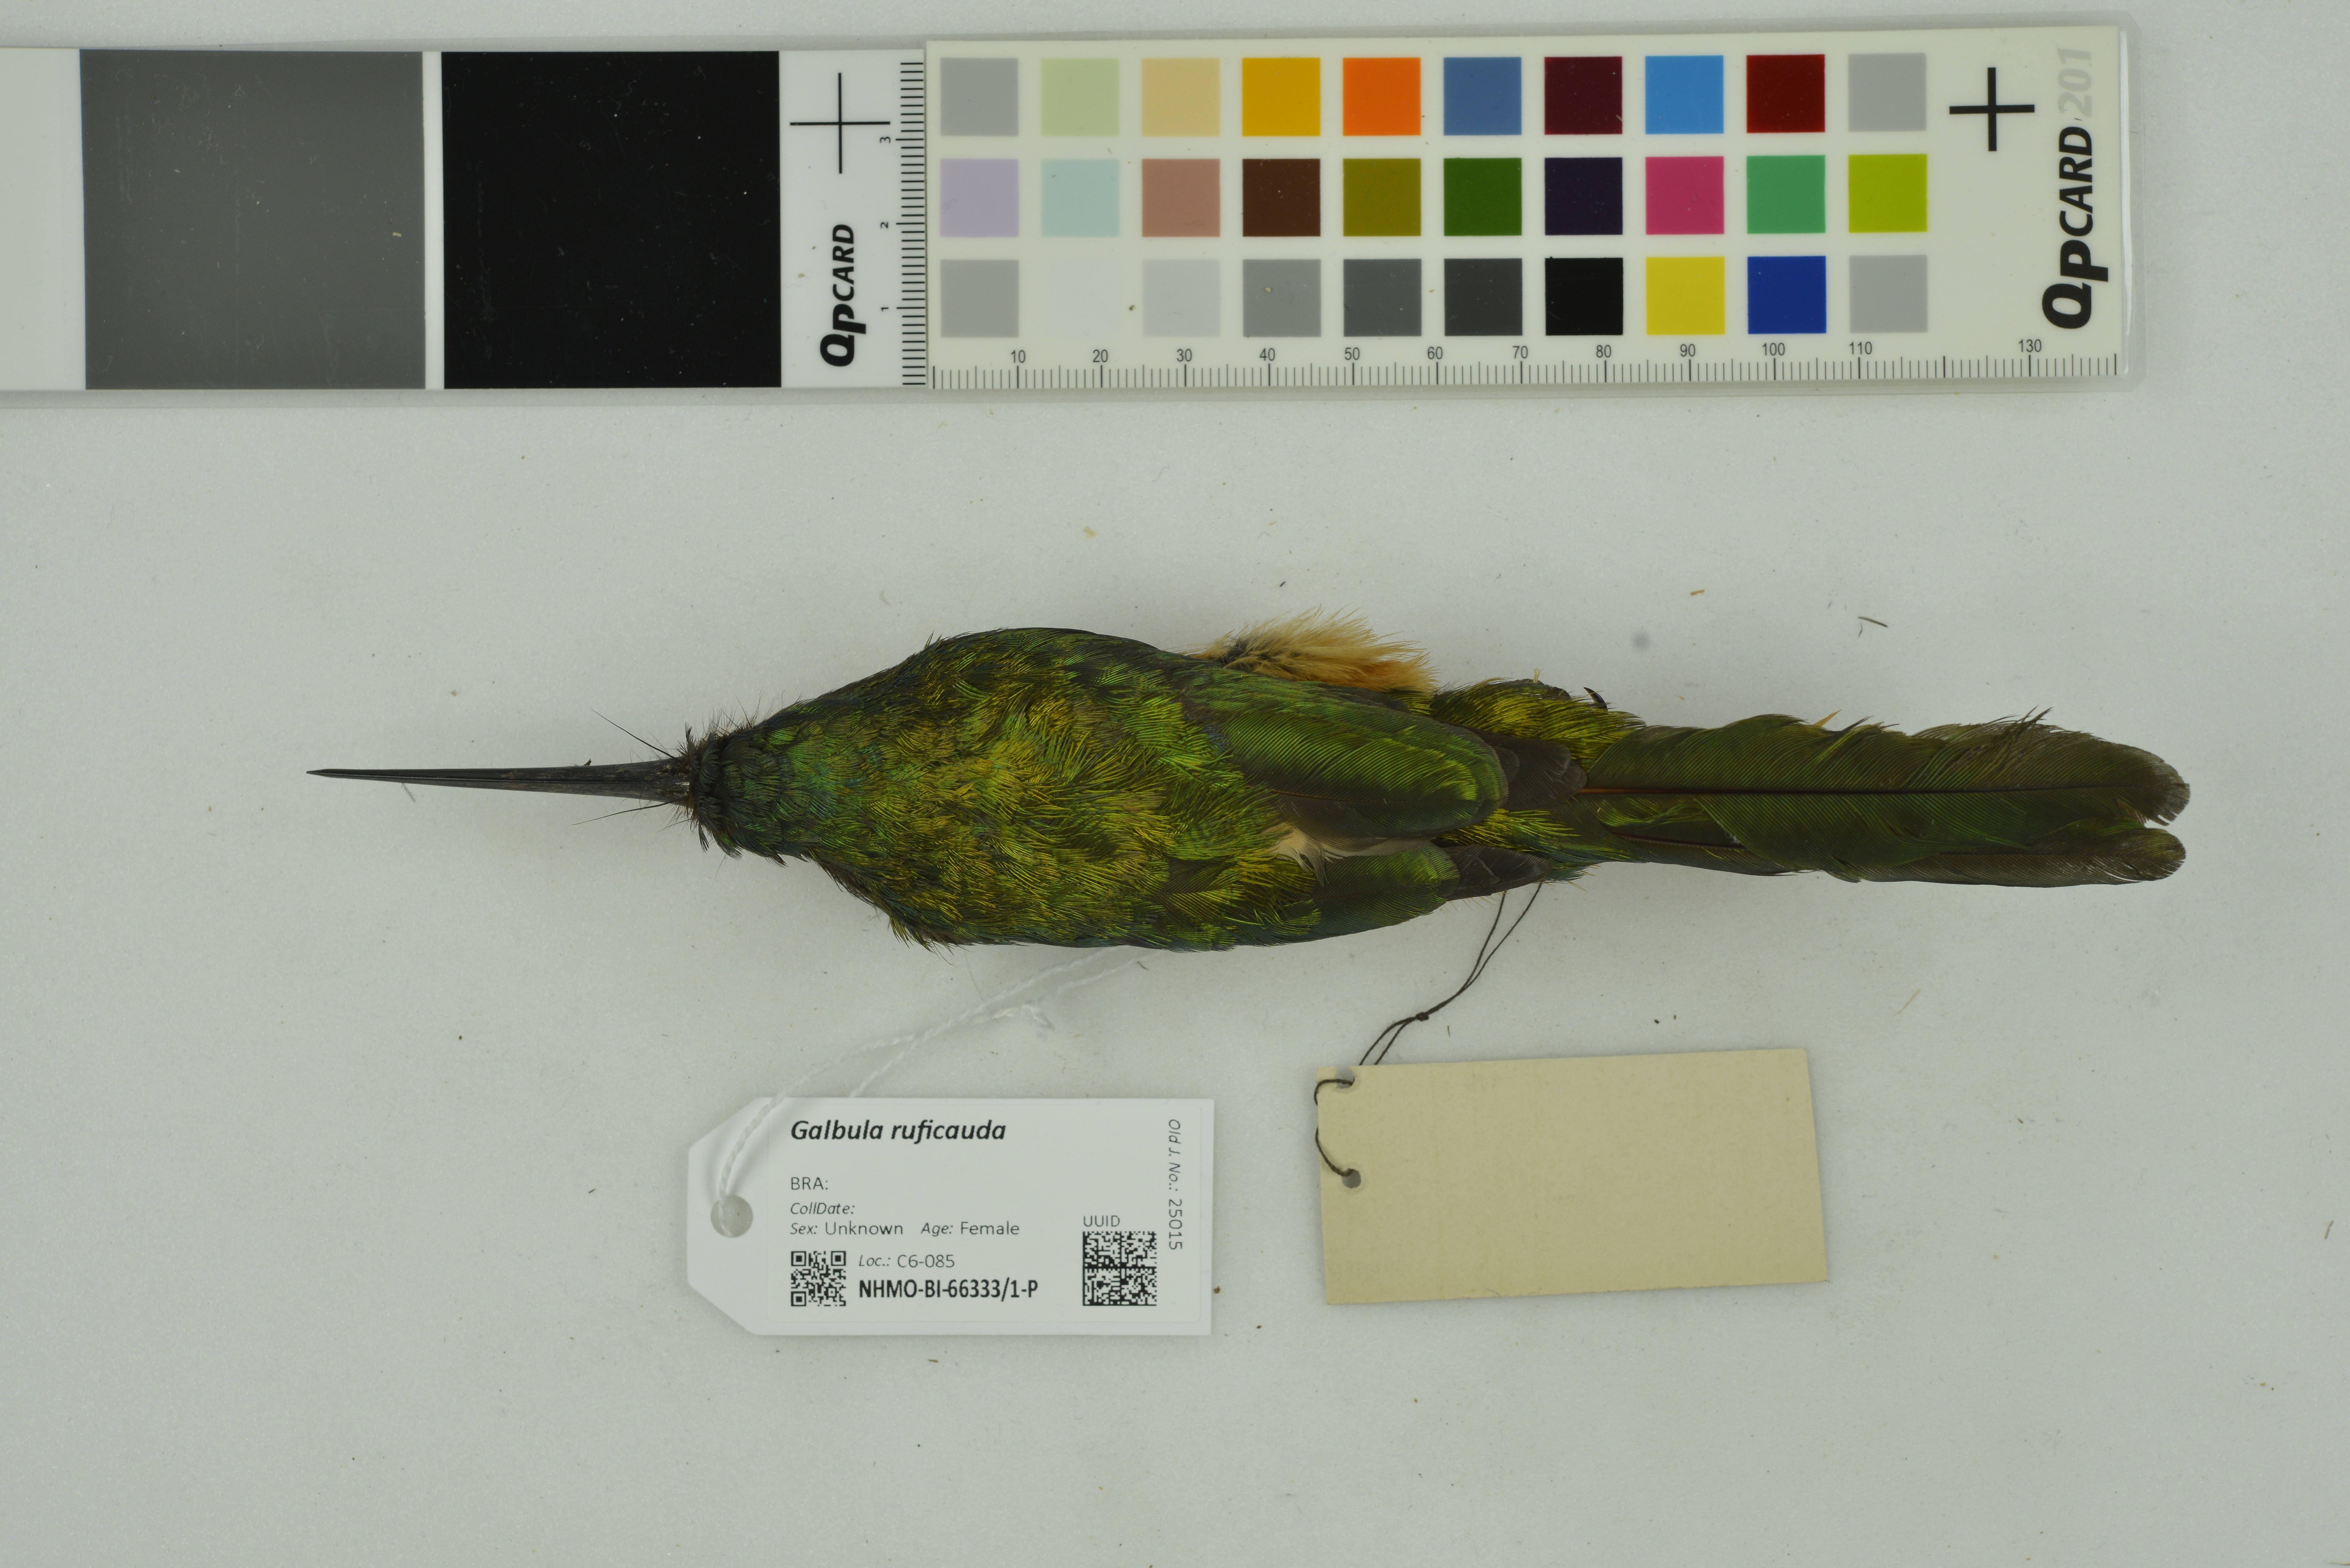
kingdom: Animalia
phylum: Chordata
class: Aves
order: Piciformes
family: Galbulidae
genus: Galbula
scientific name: Galbula ruficauda
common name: Rufous-tailed jacamar
